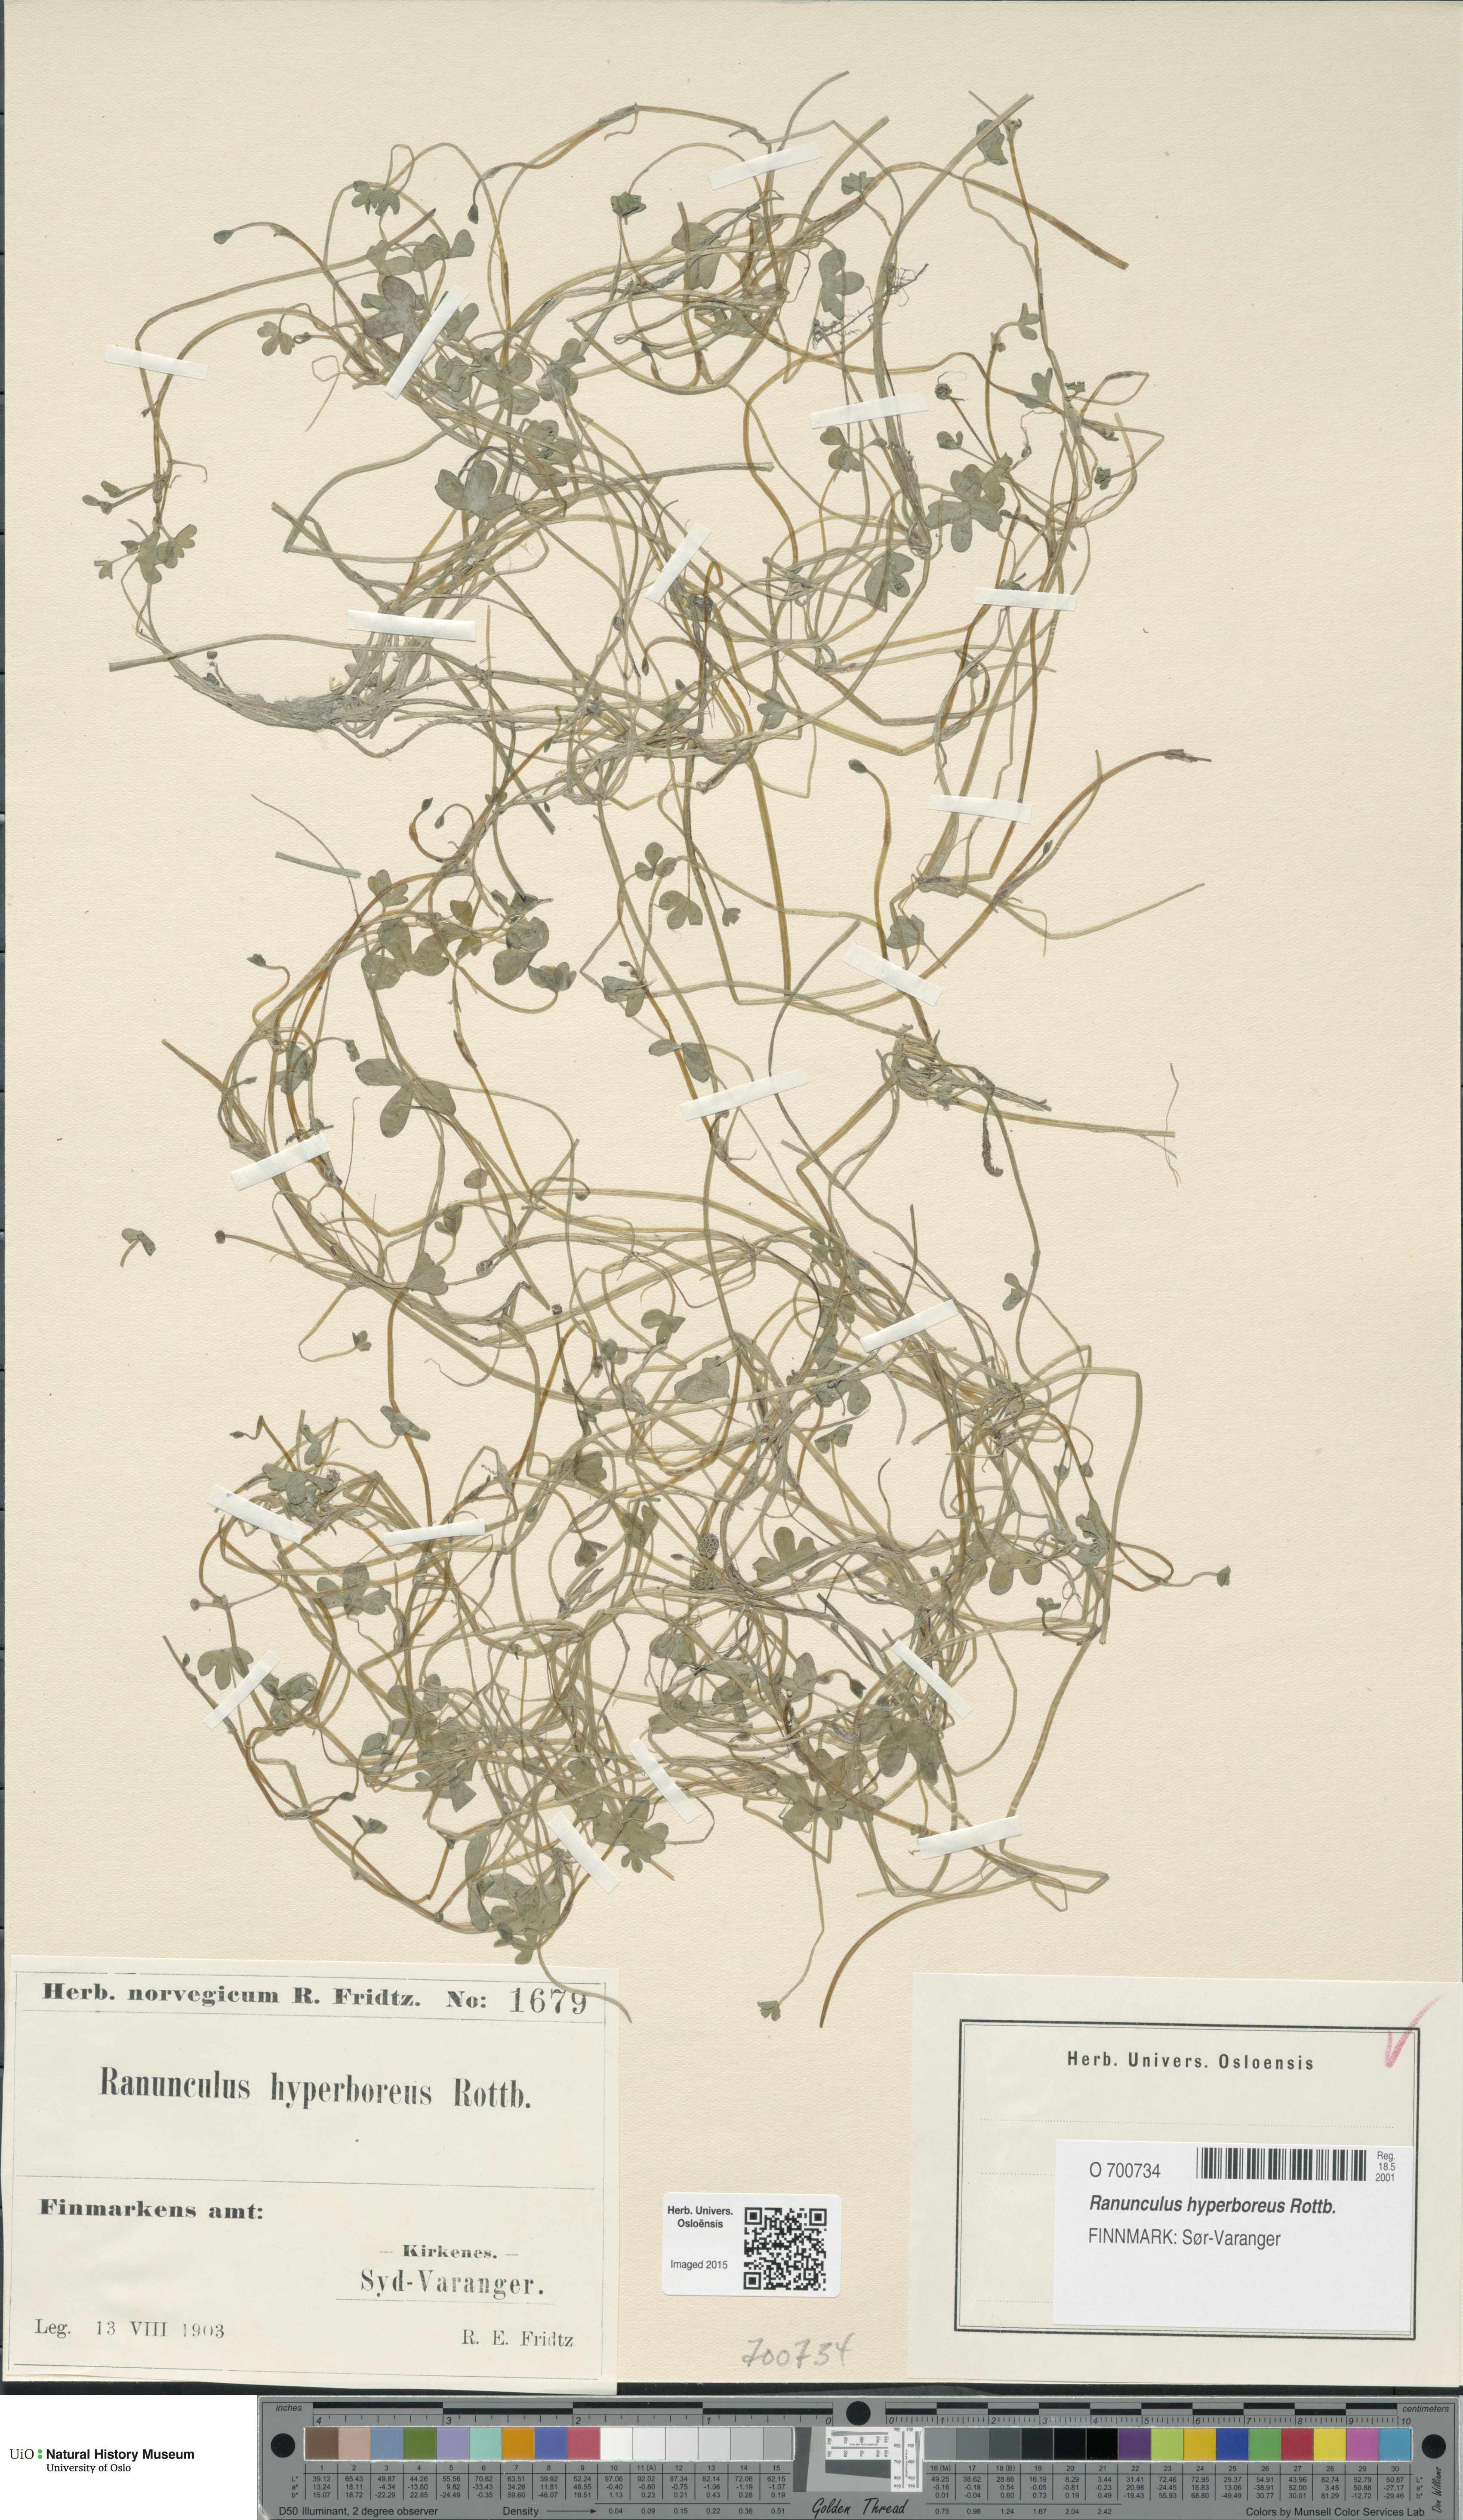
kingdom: Plantae
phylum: Tracheophyta
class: Magnoliopsida
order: Ranunculales
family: Ranunculaceae
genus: Ranunculus
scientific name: Ranunculus hyperboreus
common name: Arctic buttercup
